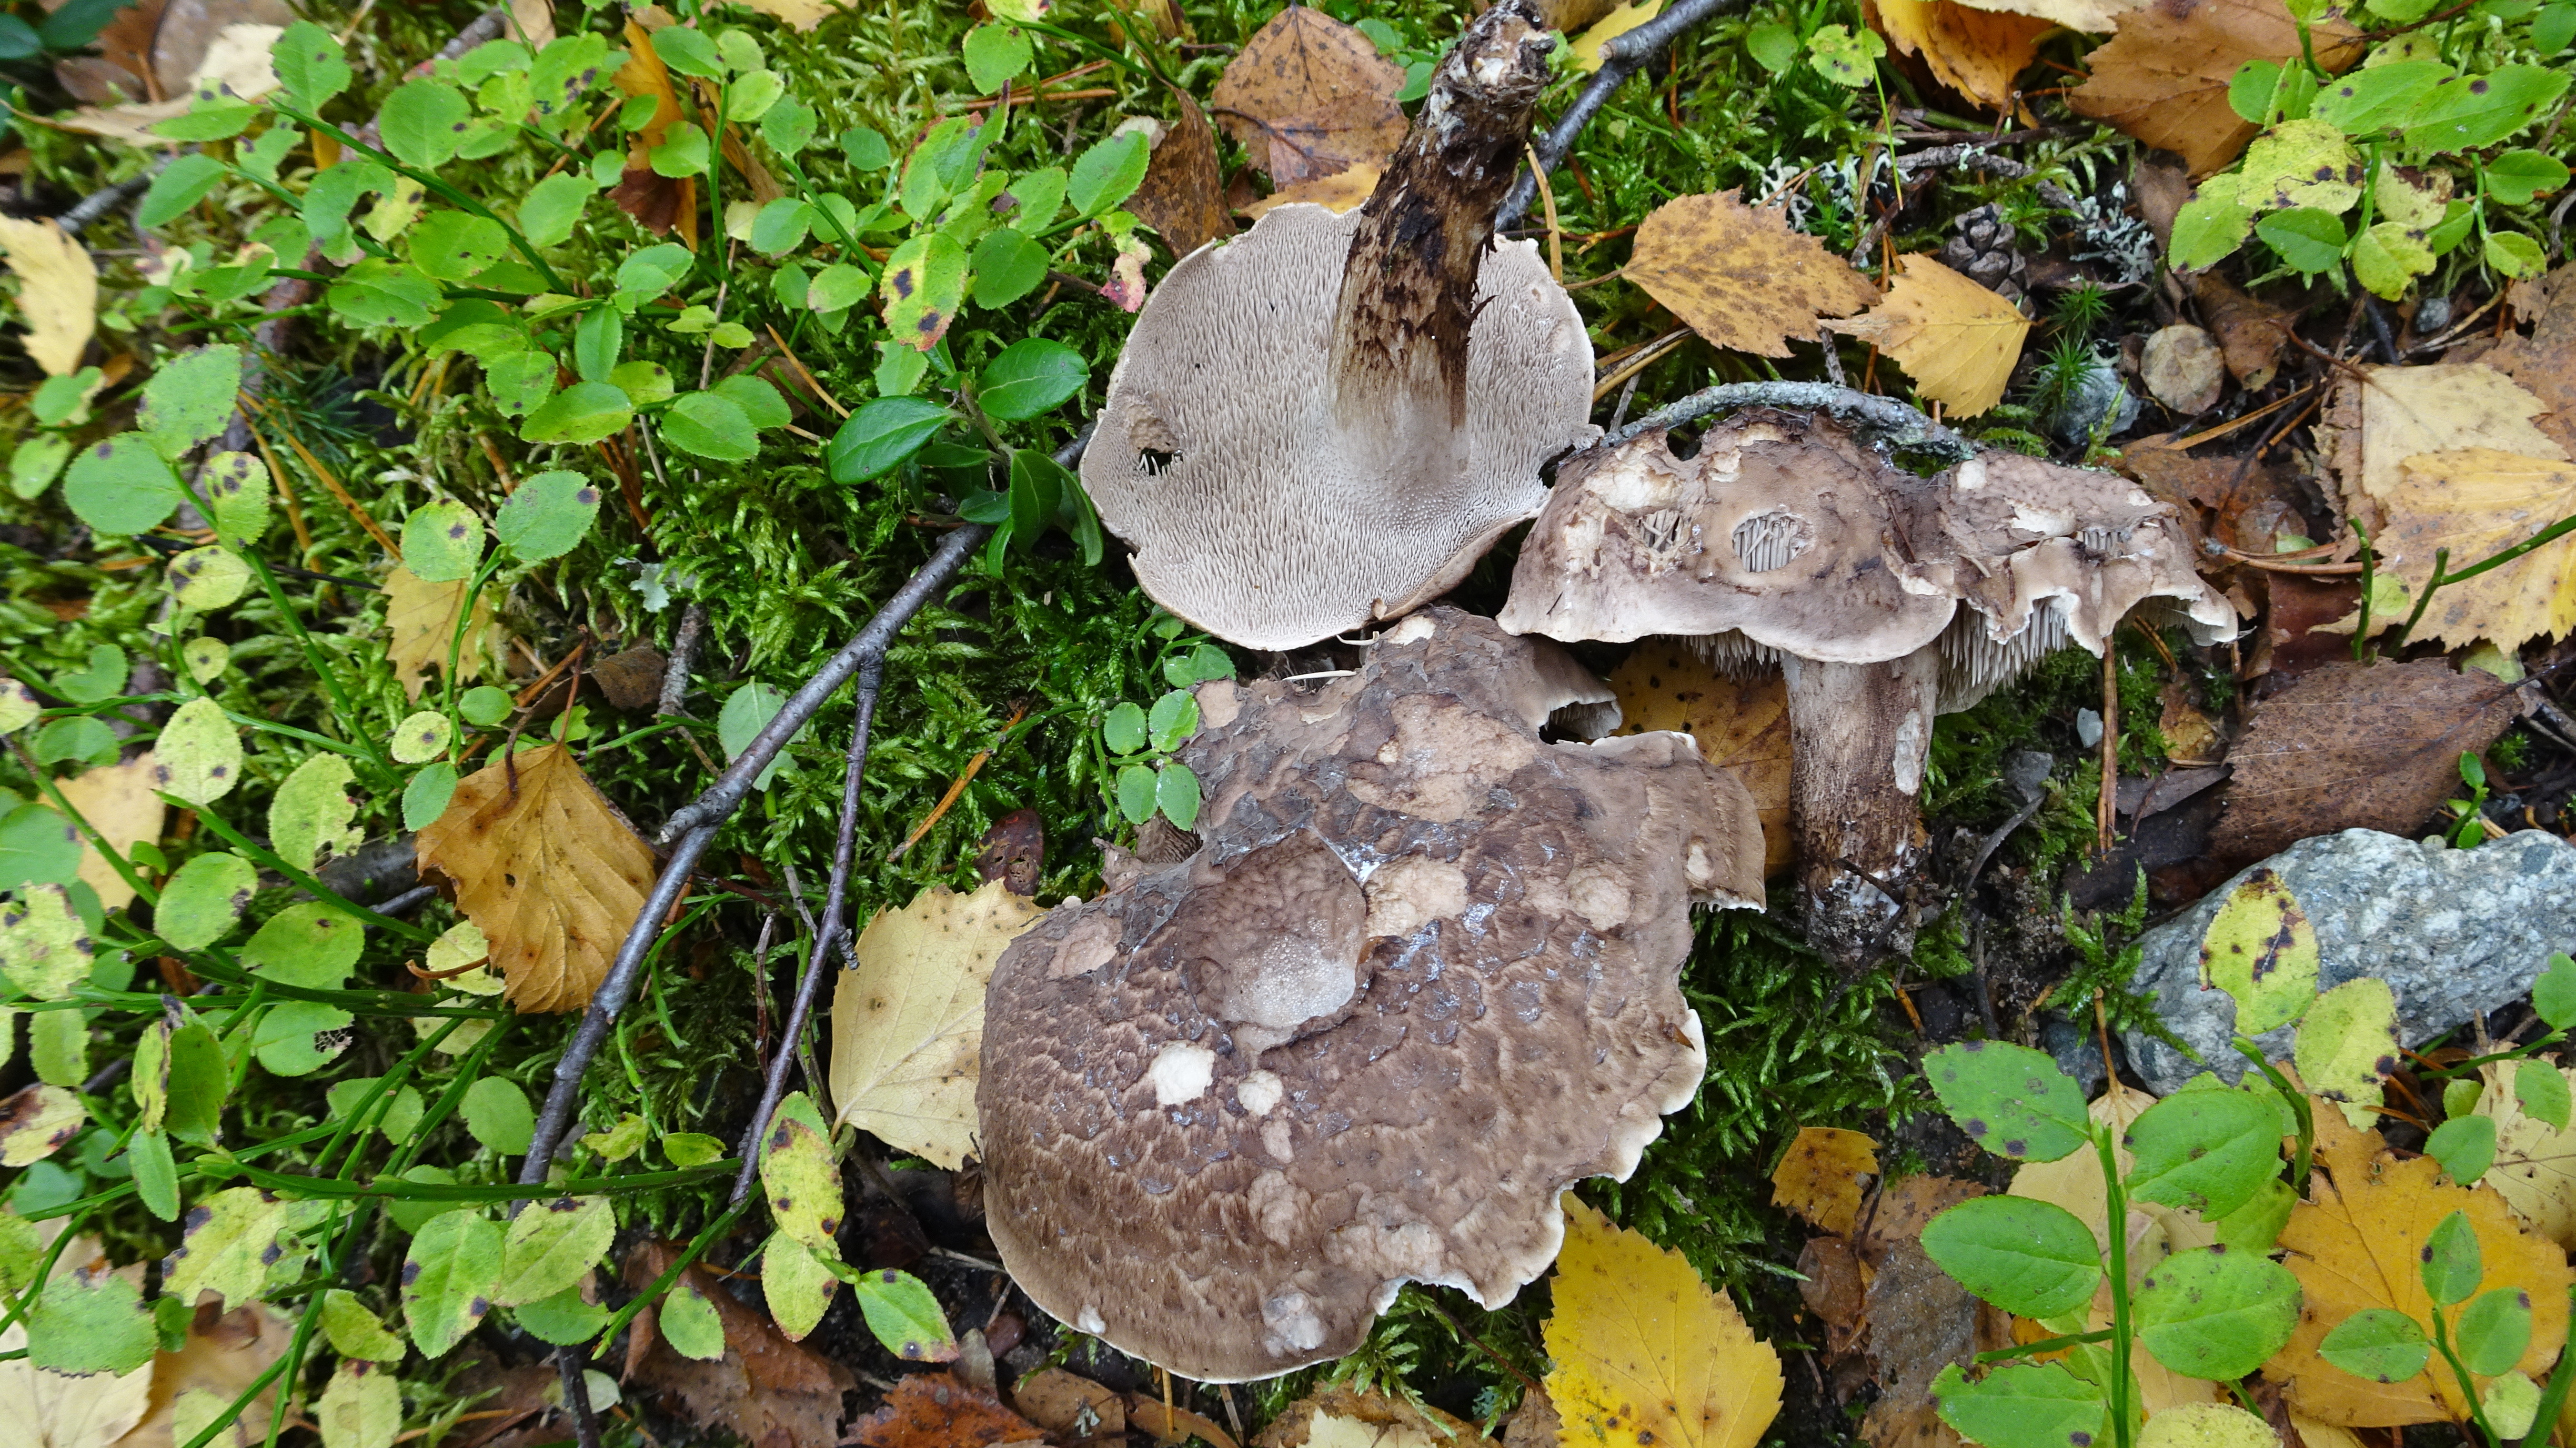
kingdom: Fungi
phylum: Basidiomycota
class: Agaricomycetes
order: Thelephorales
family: Bankeraceae
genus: Sarcodon
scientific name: Sarcodon imbricatus
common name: Shingled hedgehog
